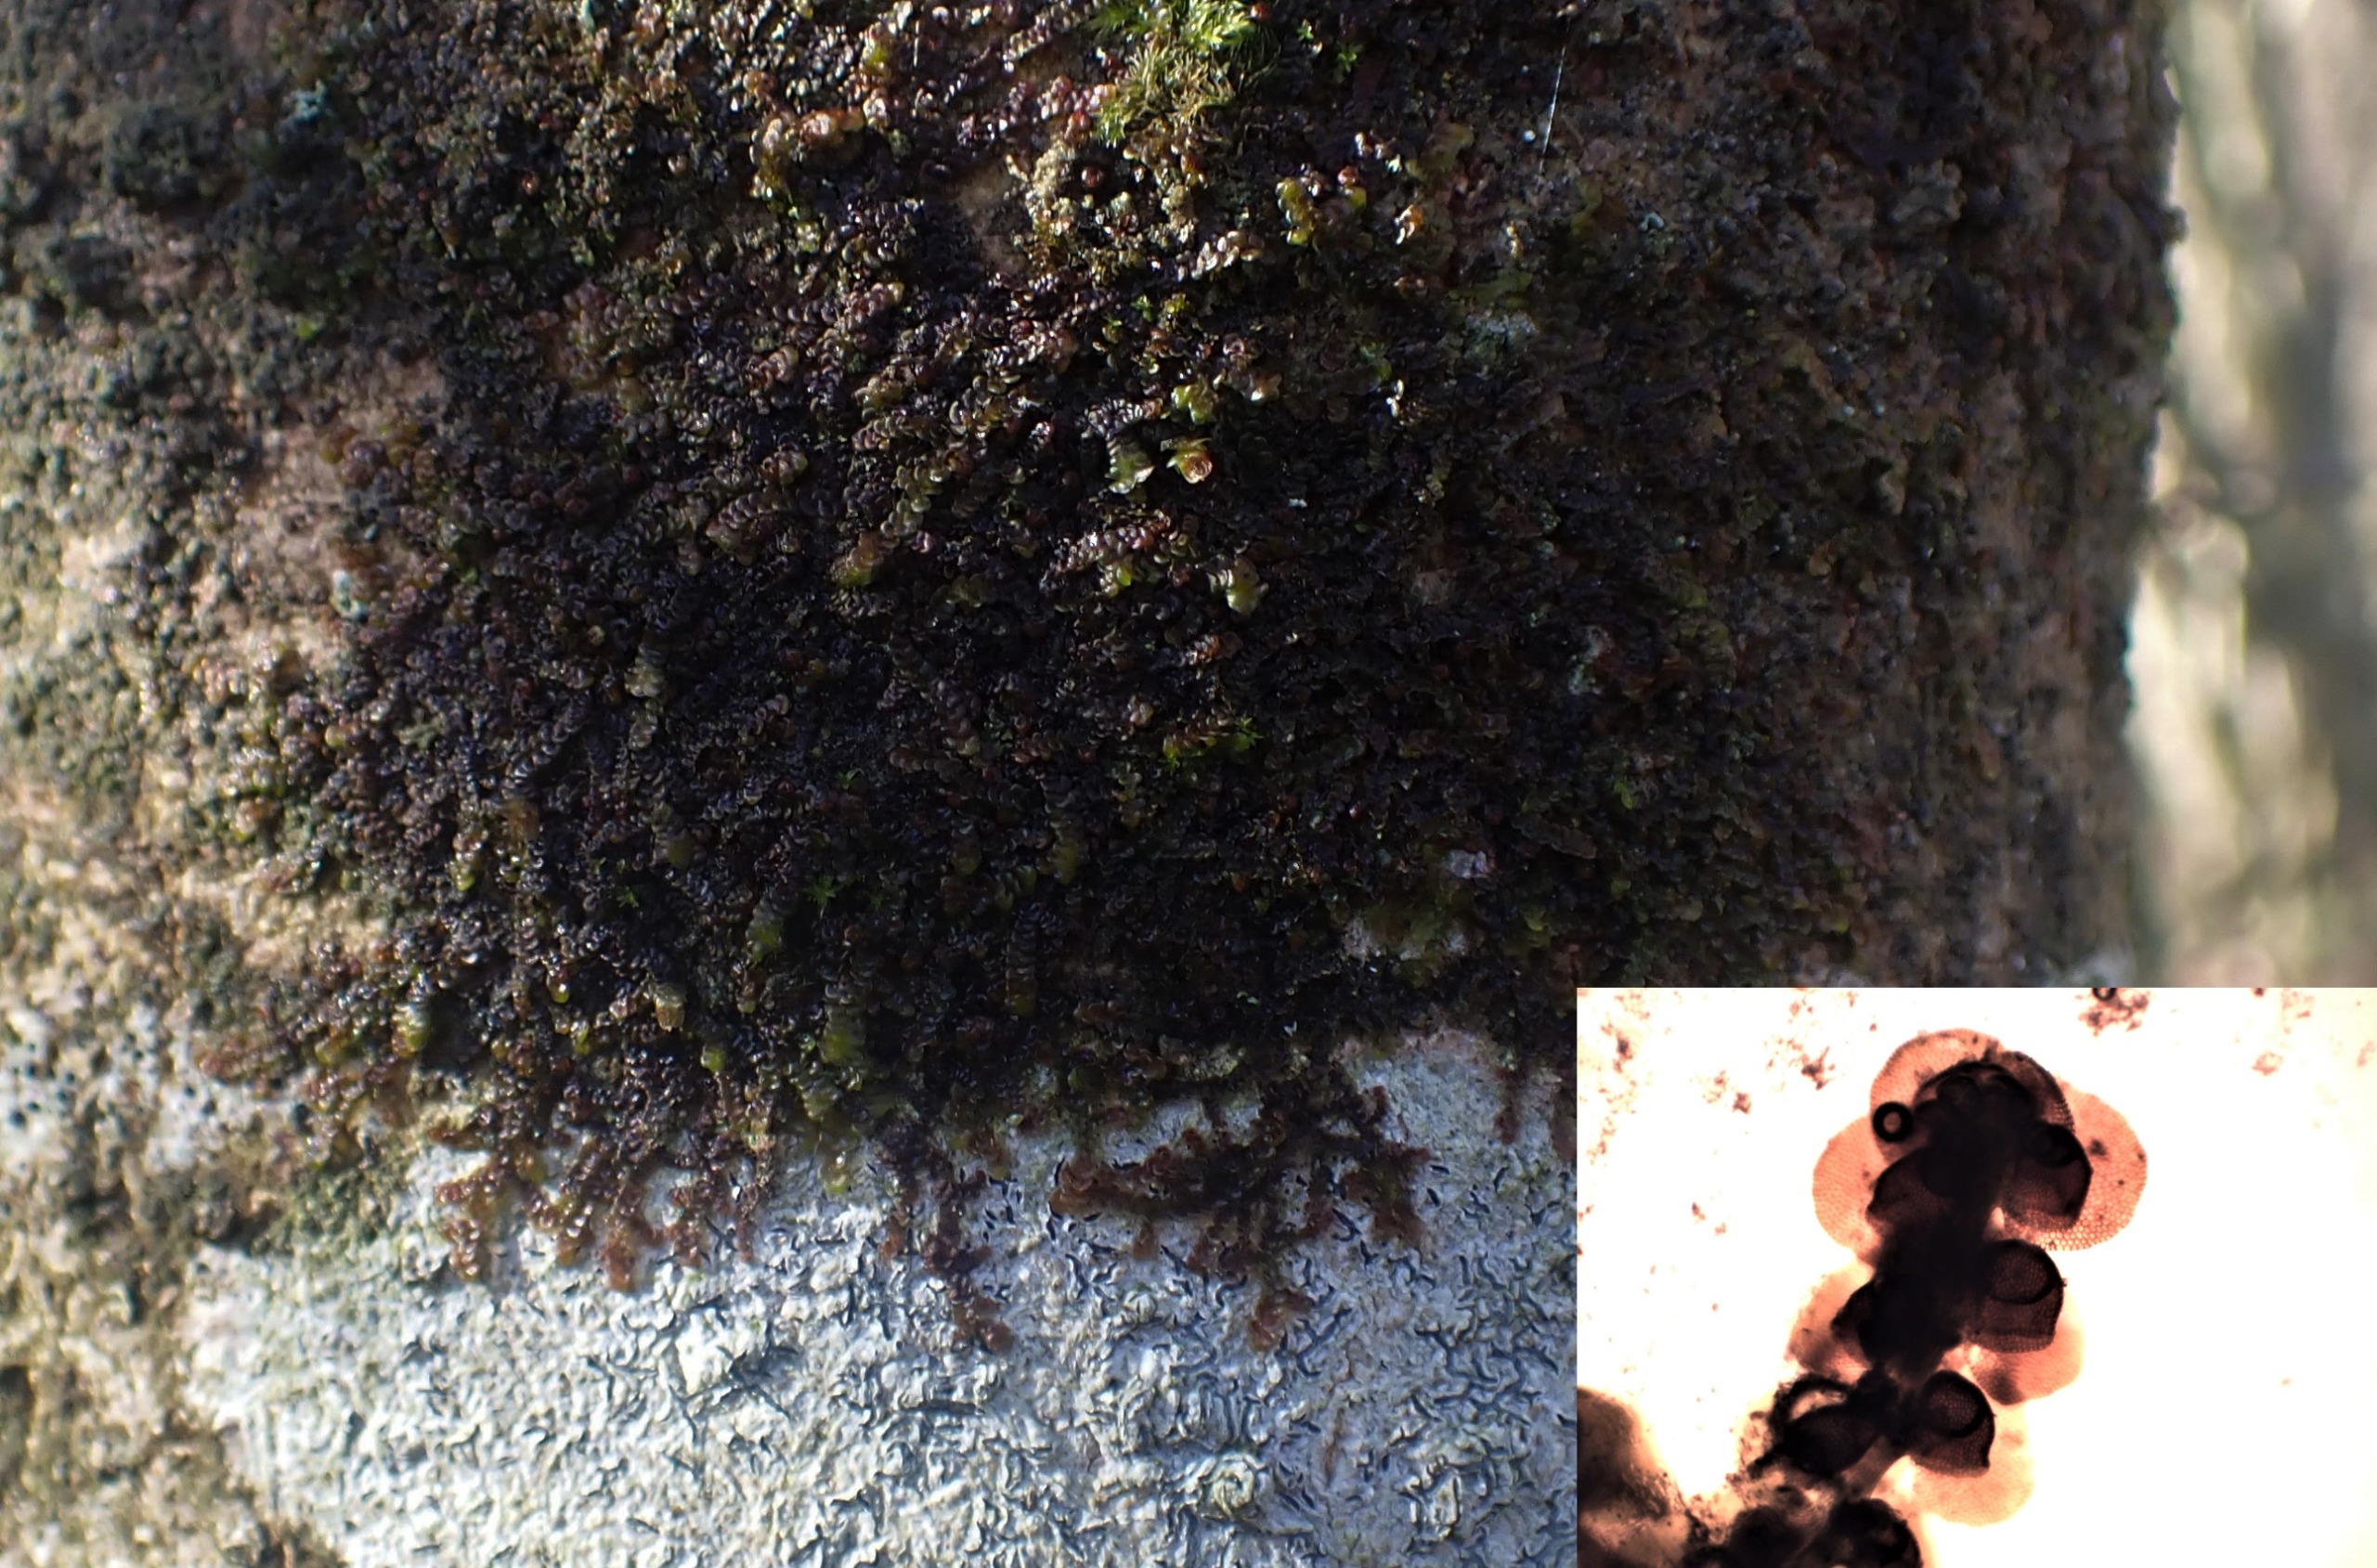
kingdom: Plantae
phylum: Marchantiophyta
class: Jungermanniopsida
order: Porellales
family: Frullaniaceae
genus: Frullania
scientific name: Frullania dilatata
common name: Mat bronzemos
